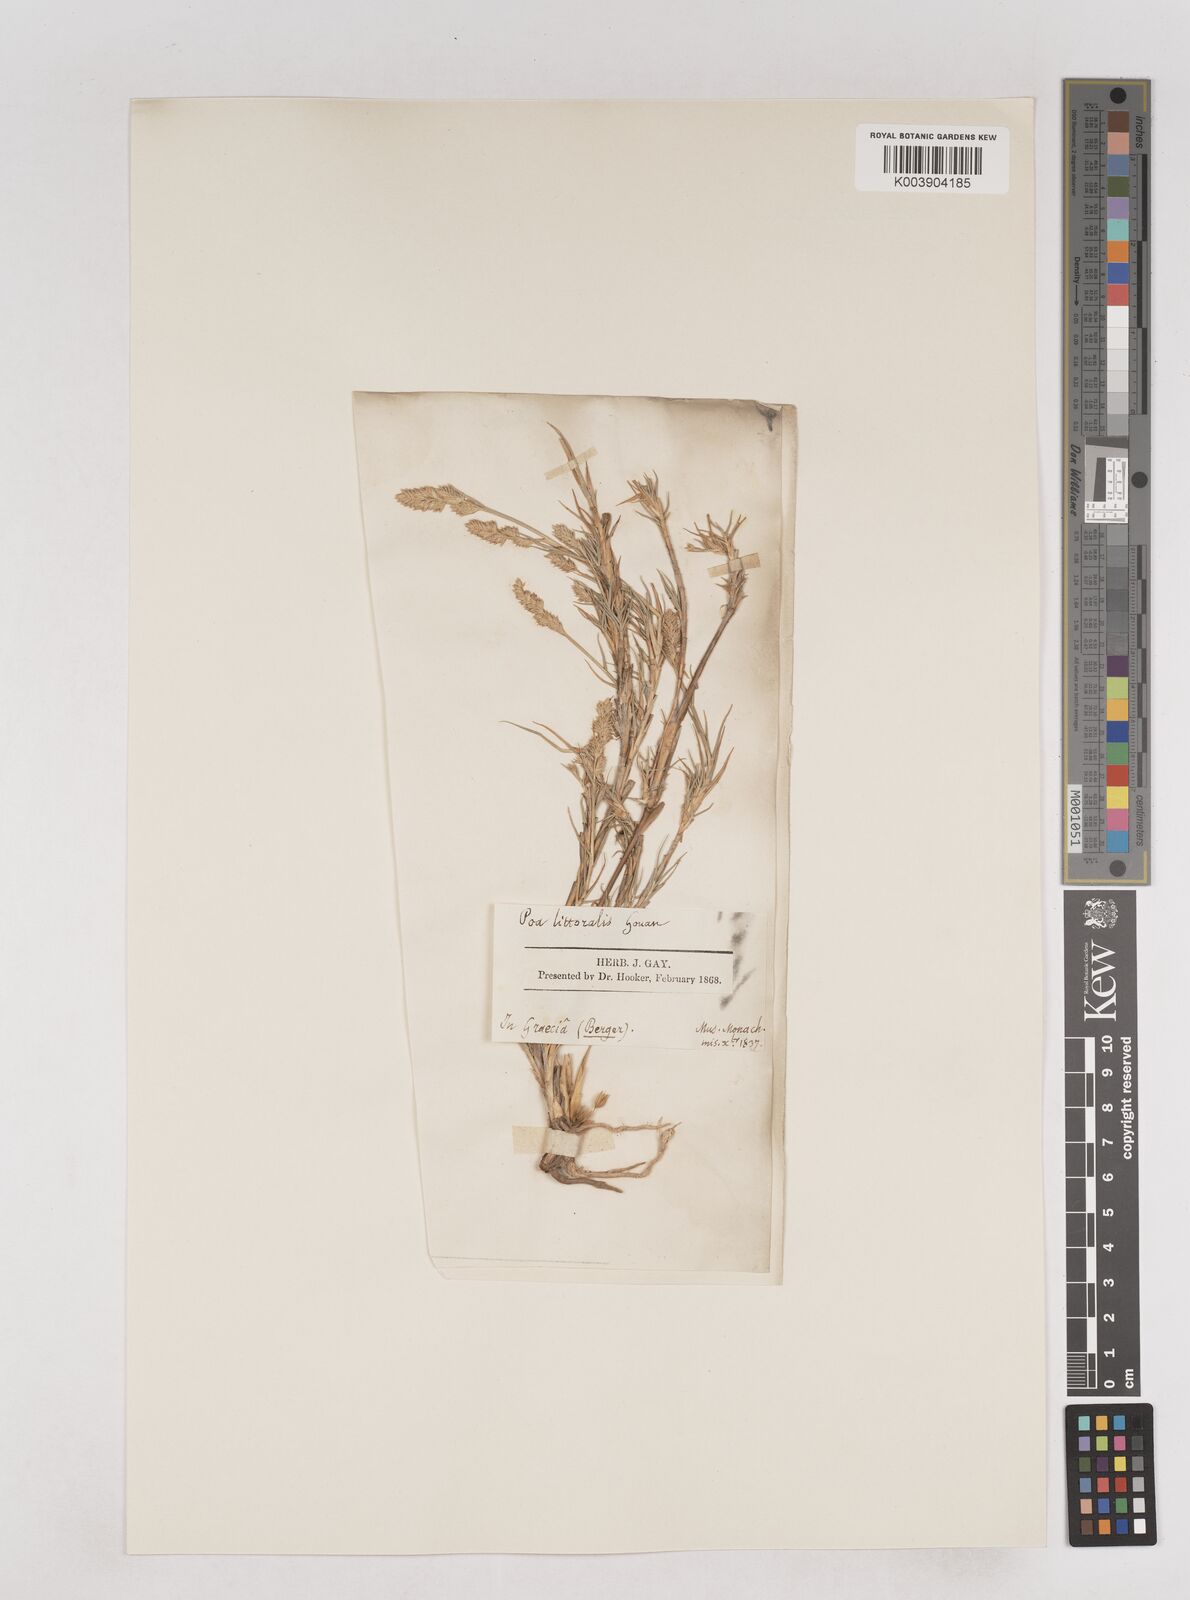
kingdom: Plantae
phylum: Tracheophyta
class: Liliopsida
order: Poales
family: Poaceae
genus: Aeluropus
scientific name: Aeluropus littoralis
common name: Indian walnut
